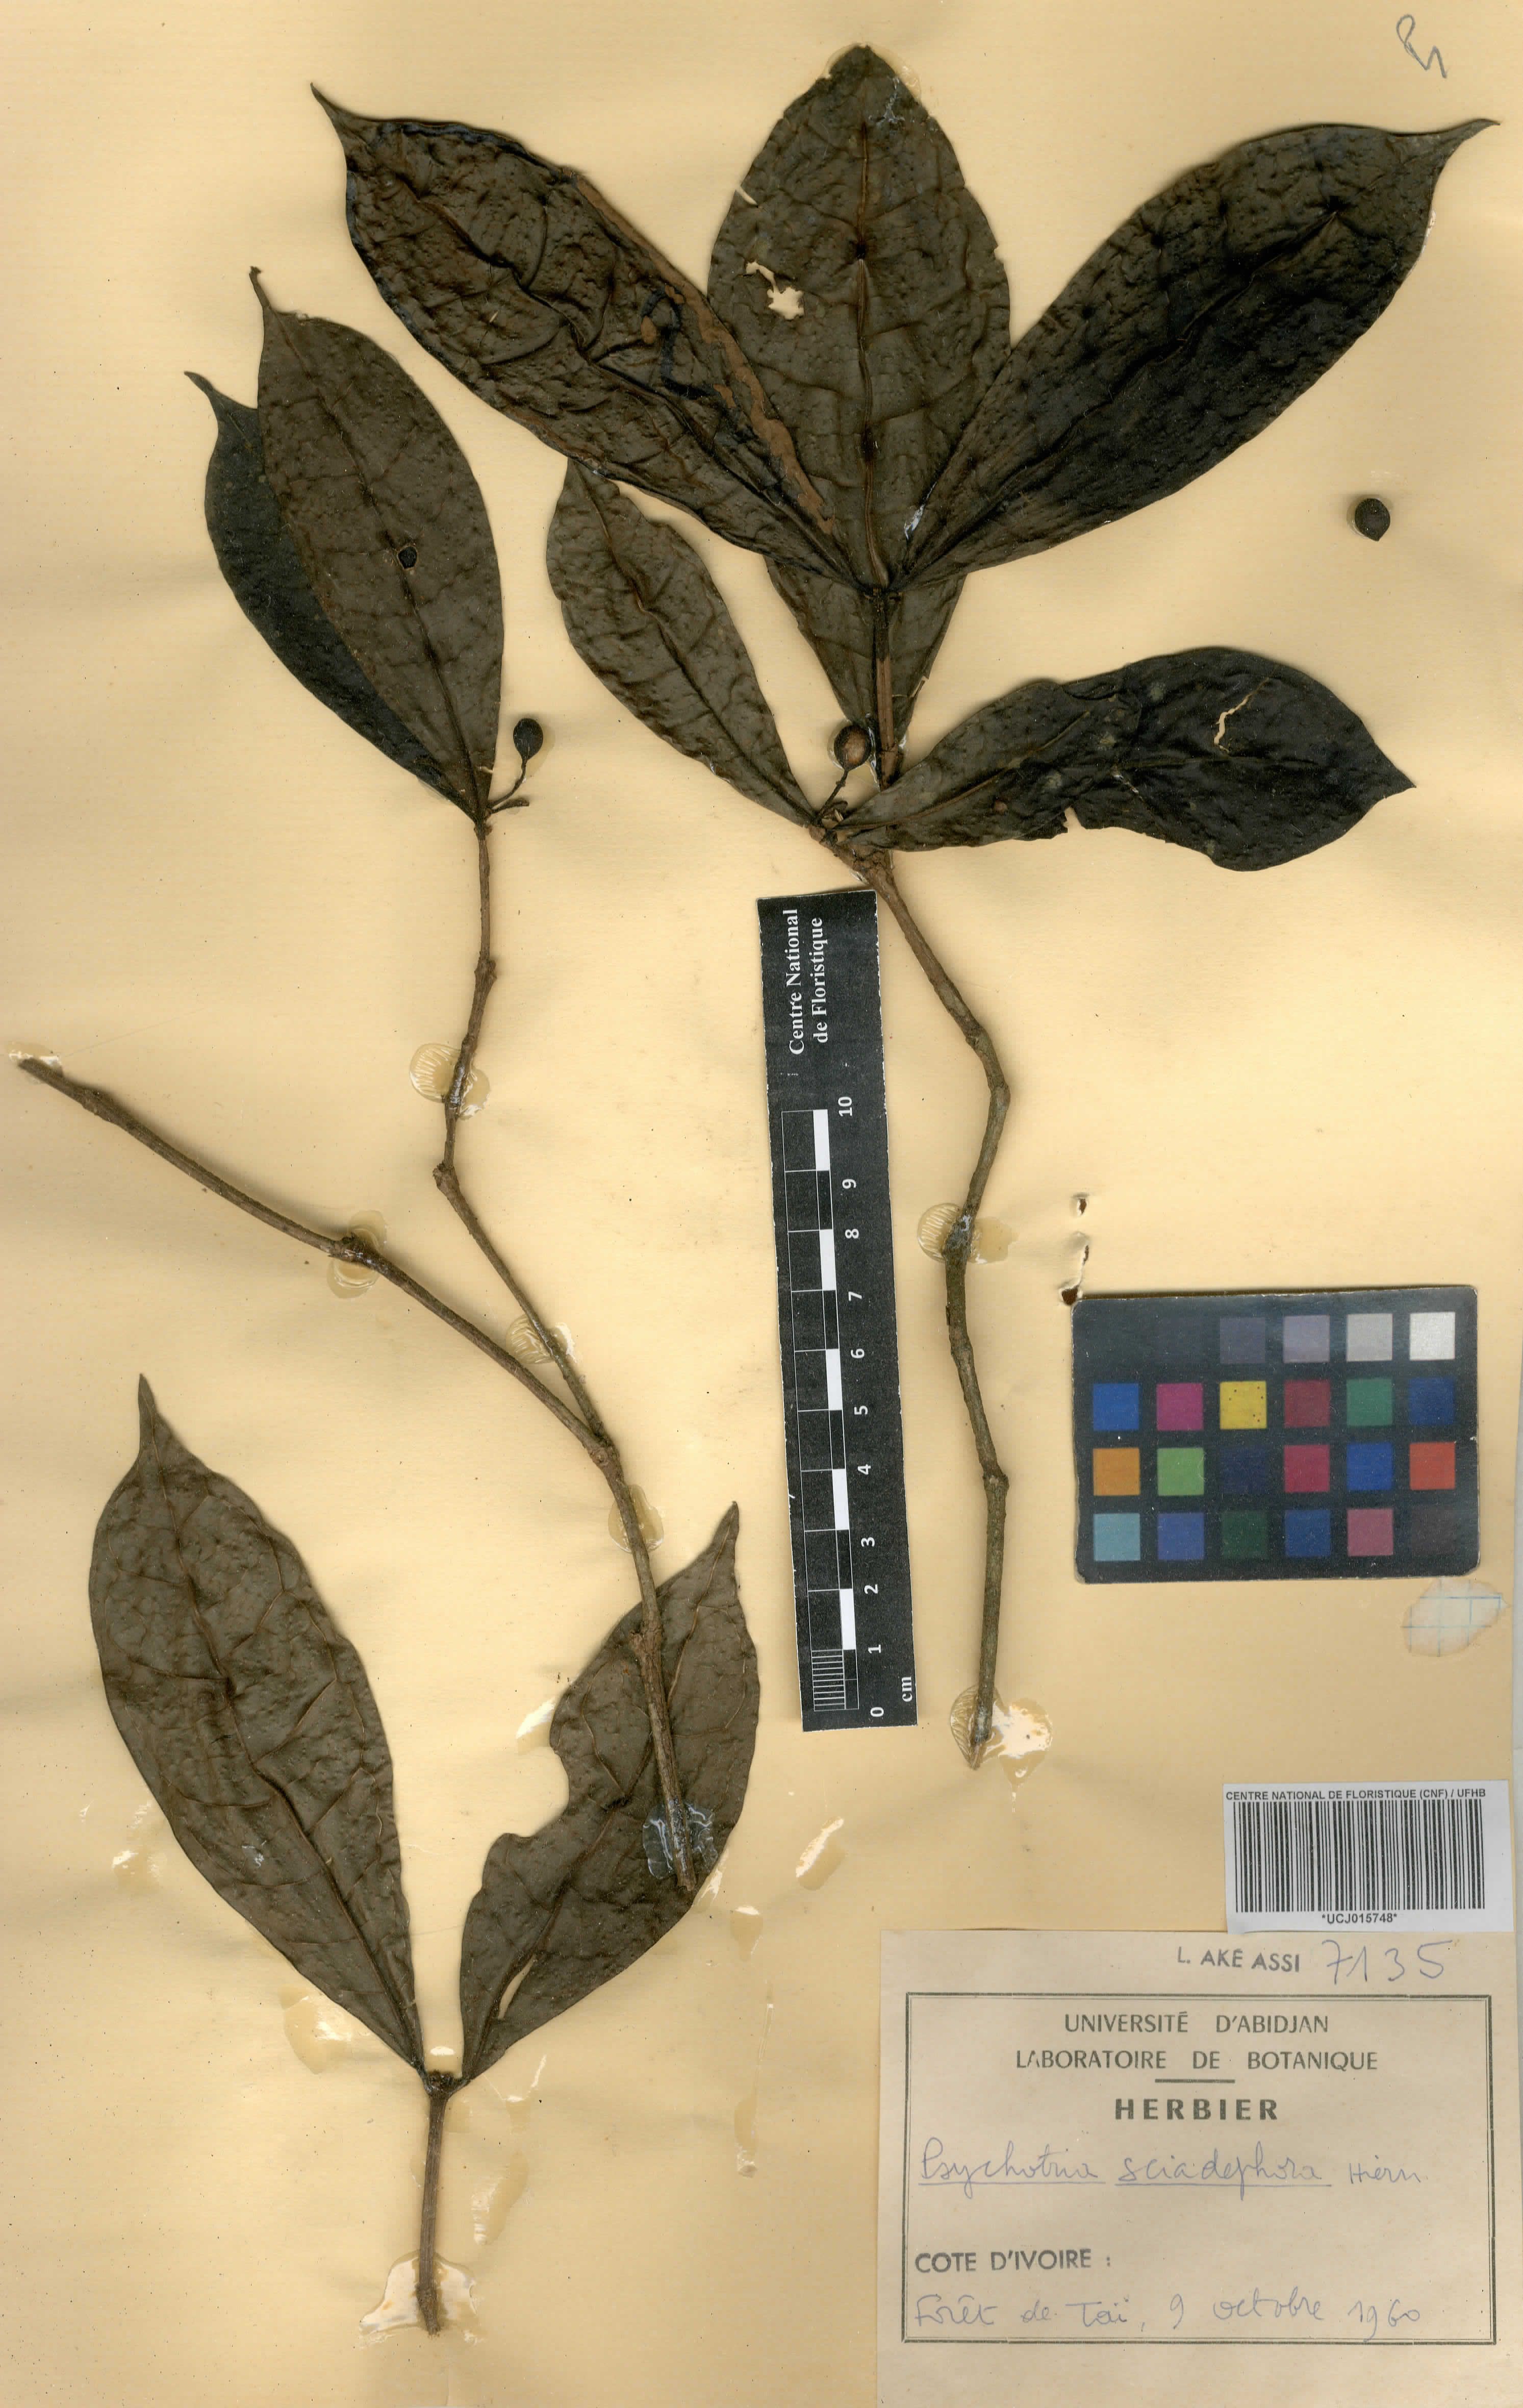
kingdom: Plantae
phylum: Tracheophyta
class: Magnoliopsida
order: Gentianales
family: Rubiaceae
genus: Eumachia
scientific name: Eumachia sciadephora
